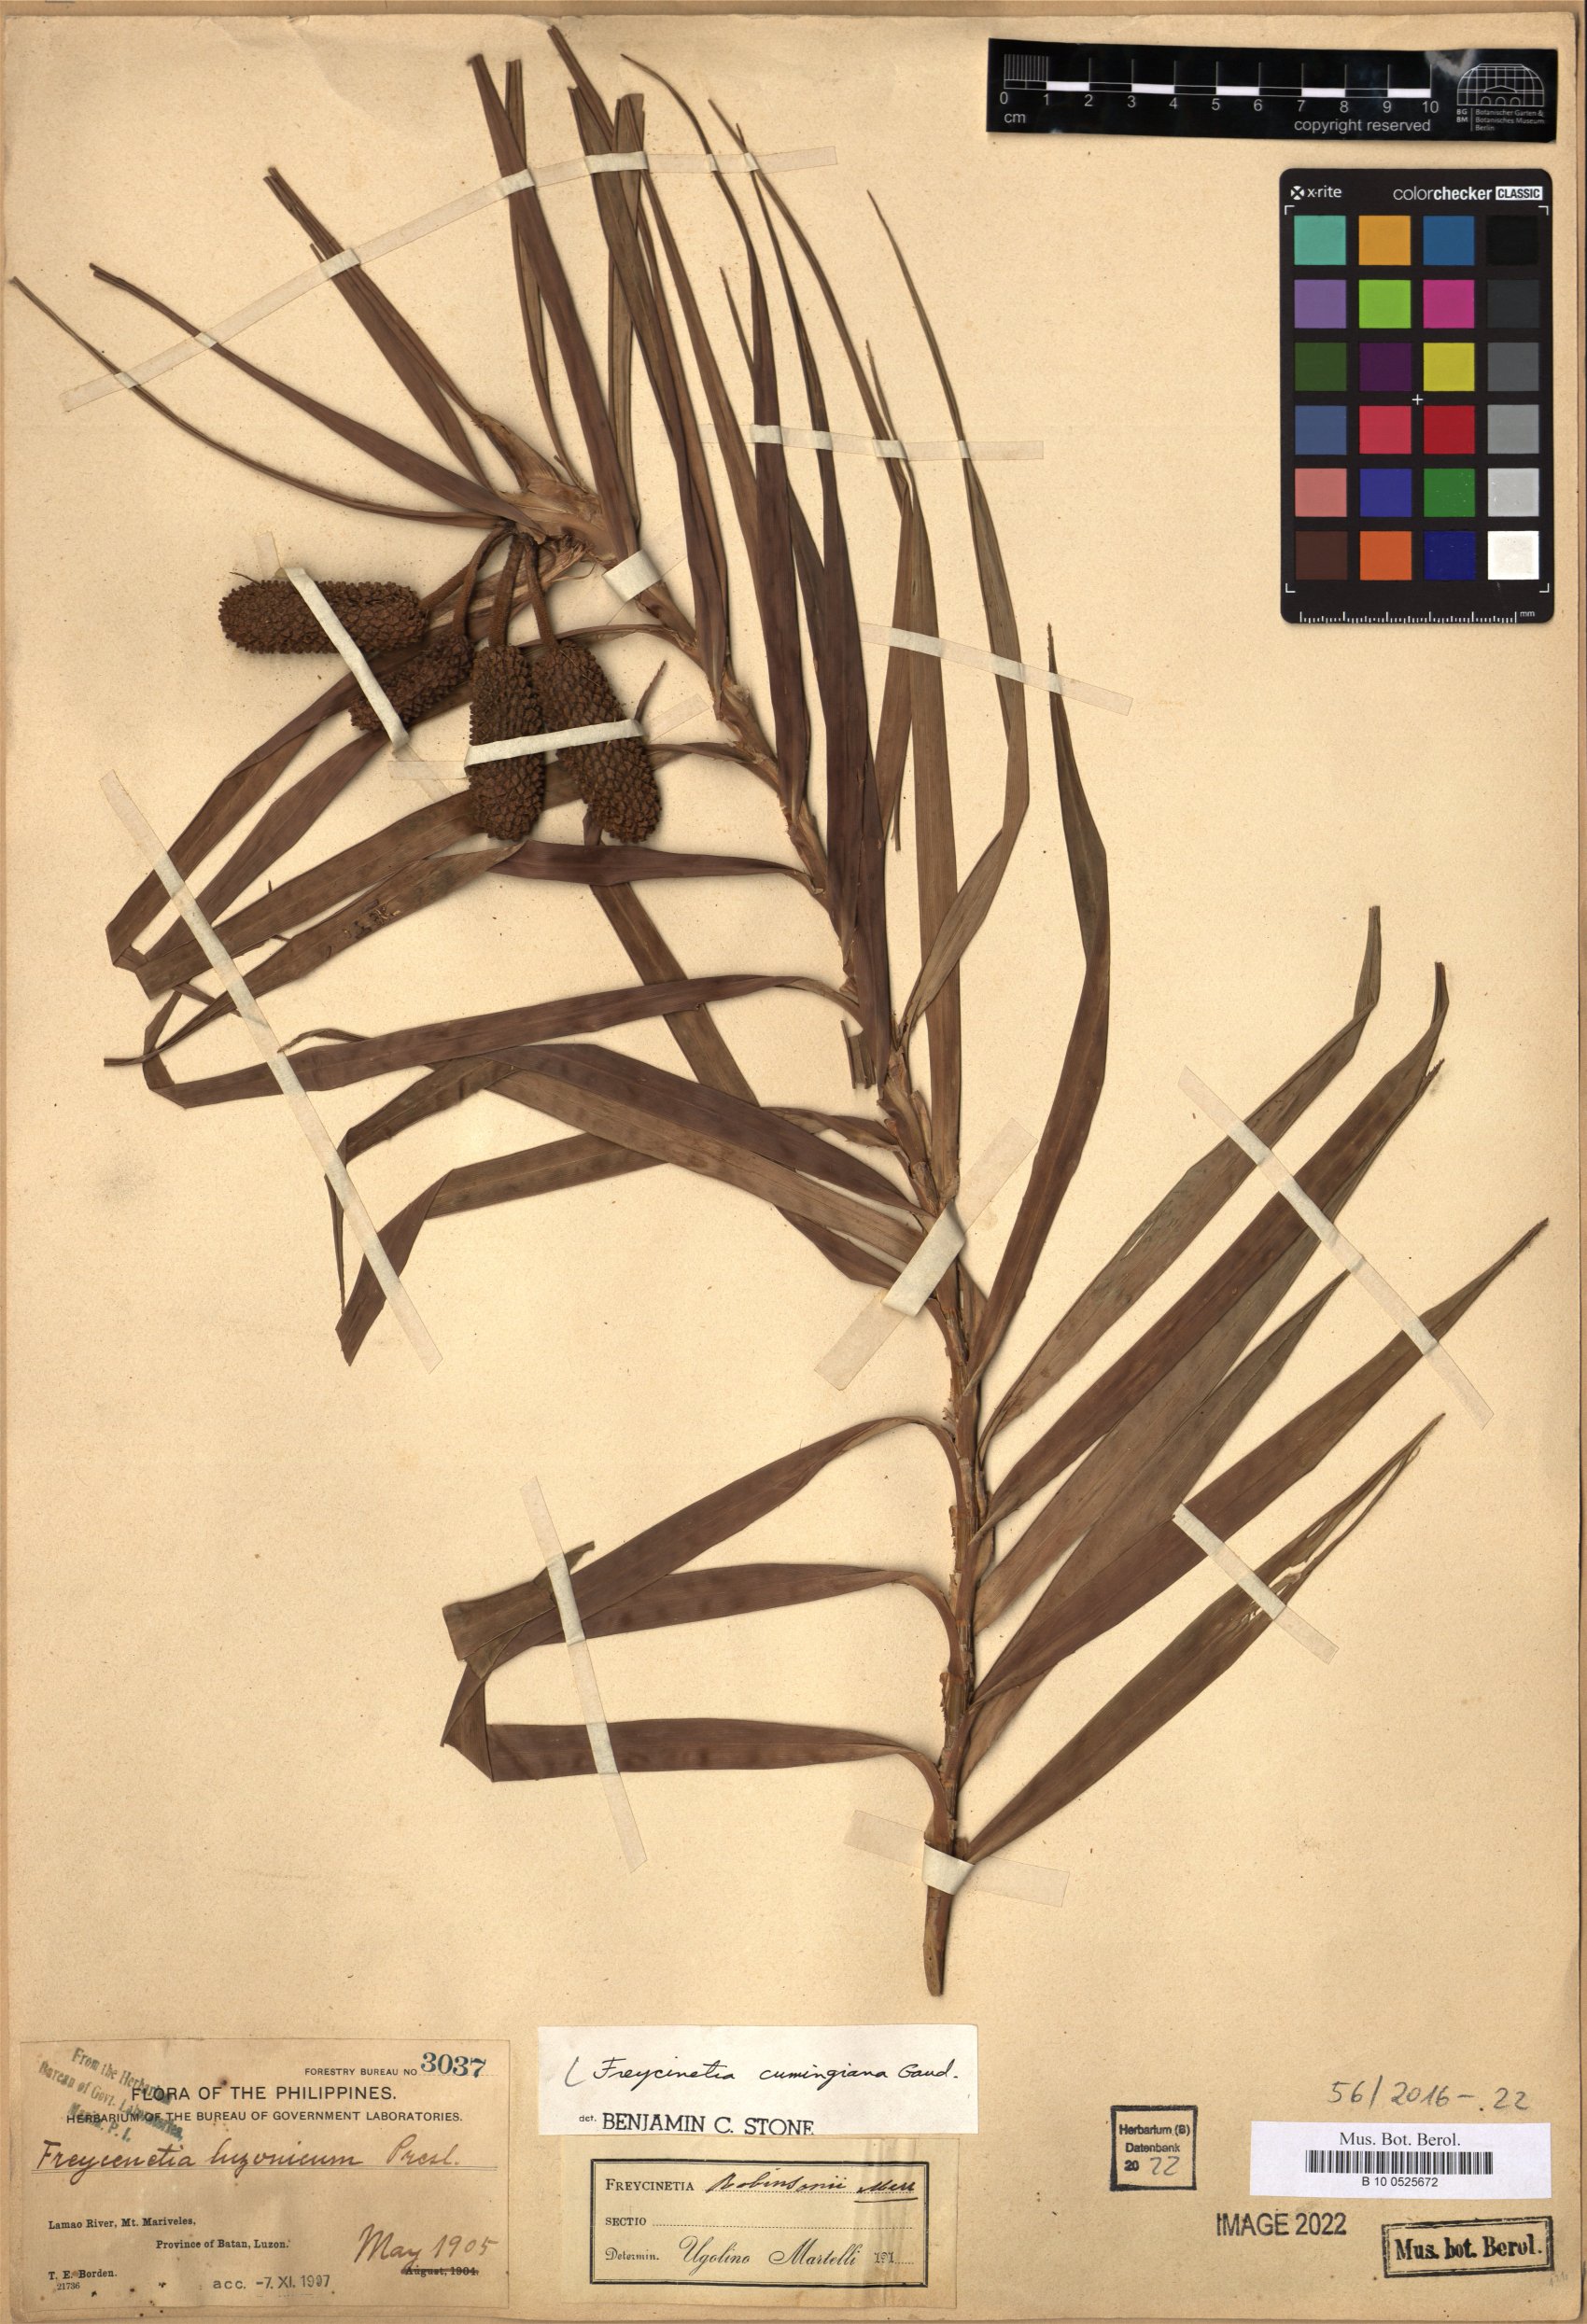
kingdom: Plantae
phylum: Tracheophyta
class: Liliopsida
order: Pandanales
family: Pandanaceae
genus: Freycinetia
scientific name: Freycinetia cumingiana
